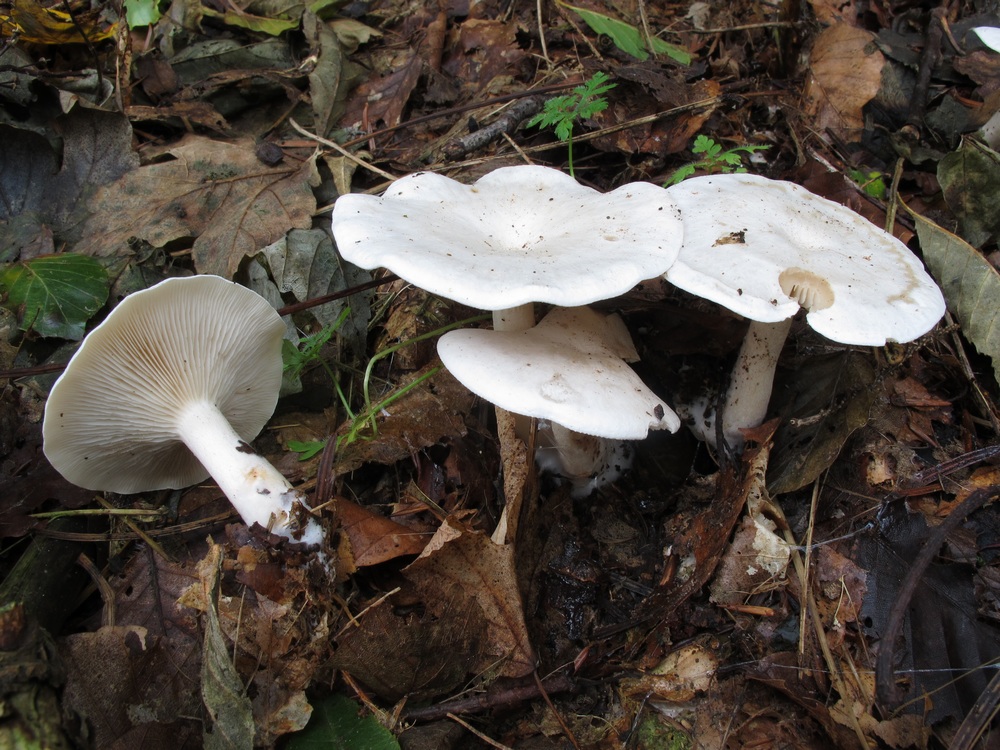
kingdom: Fungi
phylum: Basidiomycota
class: Agaricomycetes
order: Agaricales
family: Tricholomataceae
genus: Clitocybe
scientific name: Clitocybe phyllophila
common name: løv-tragthat
